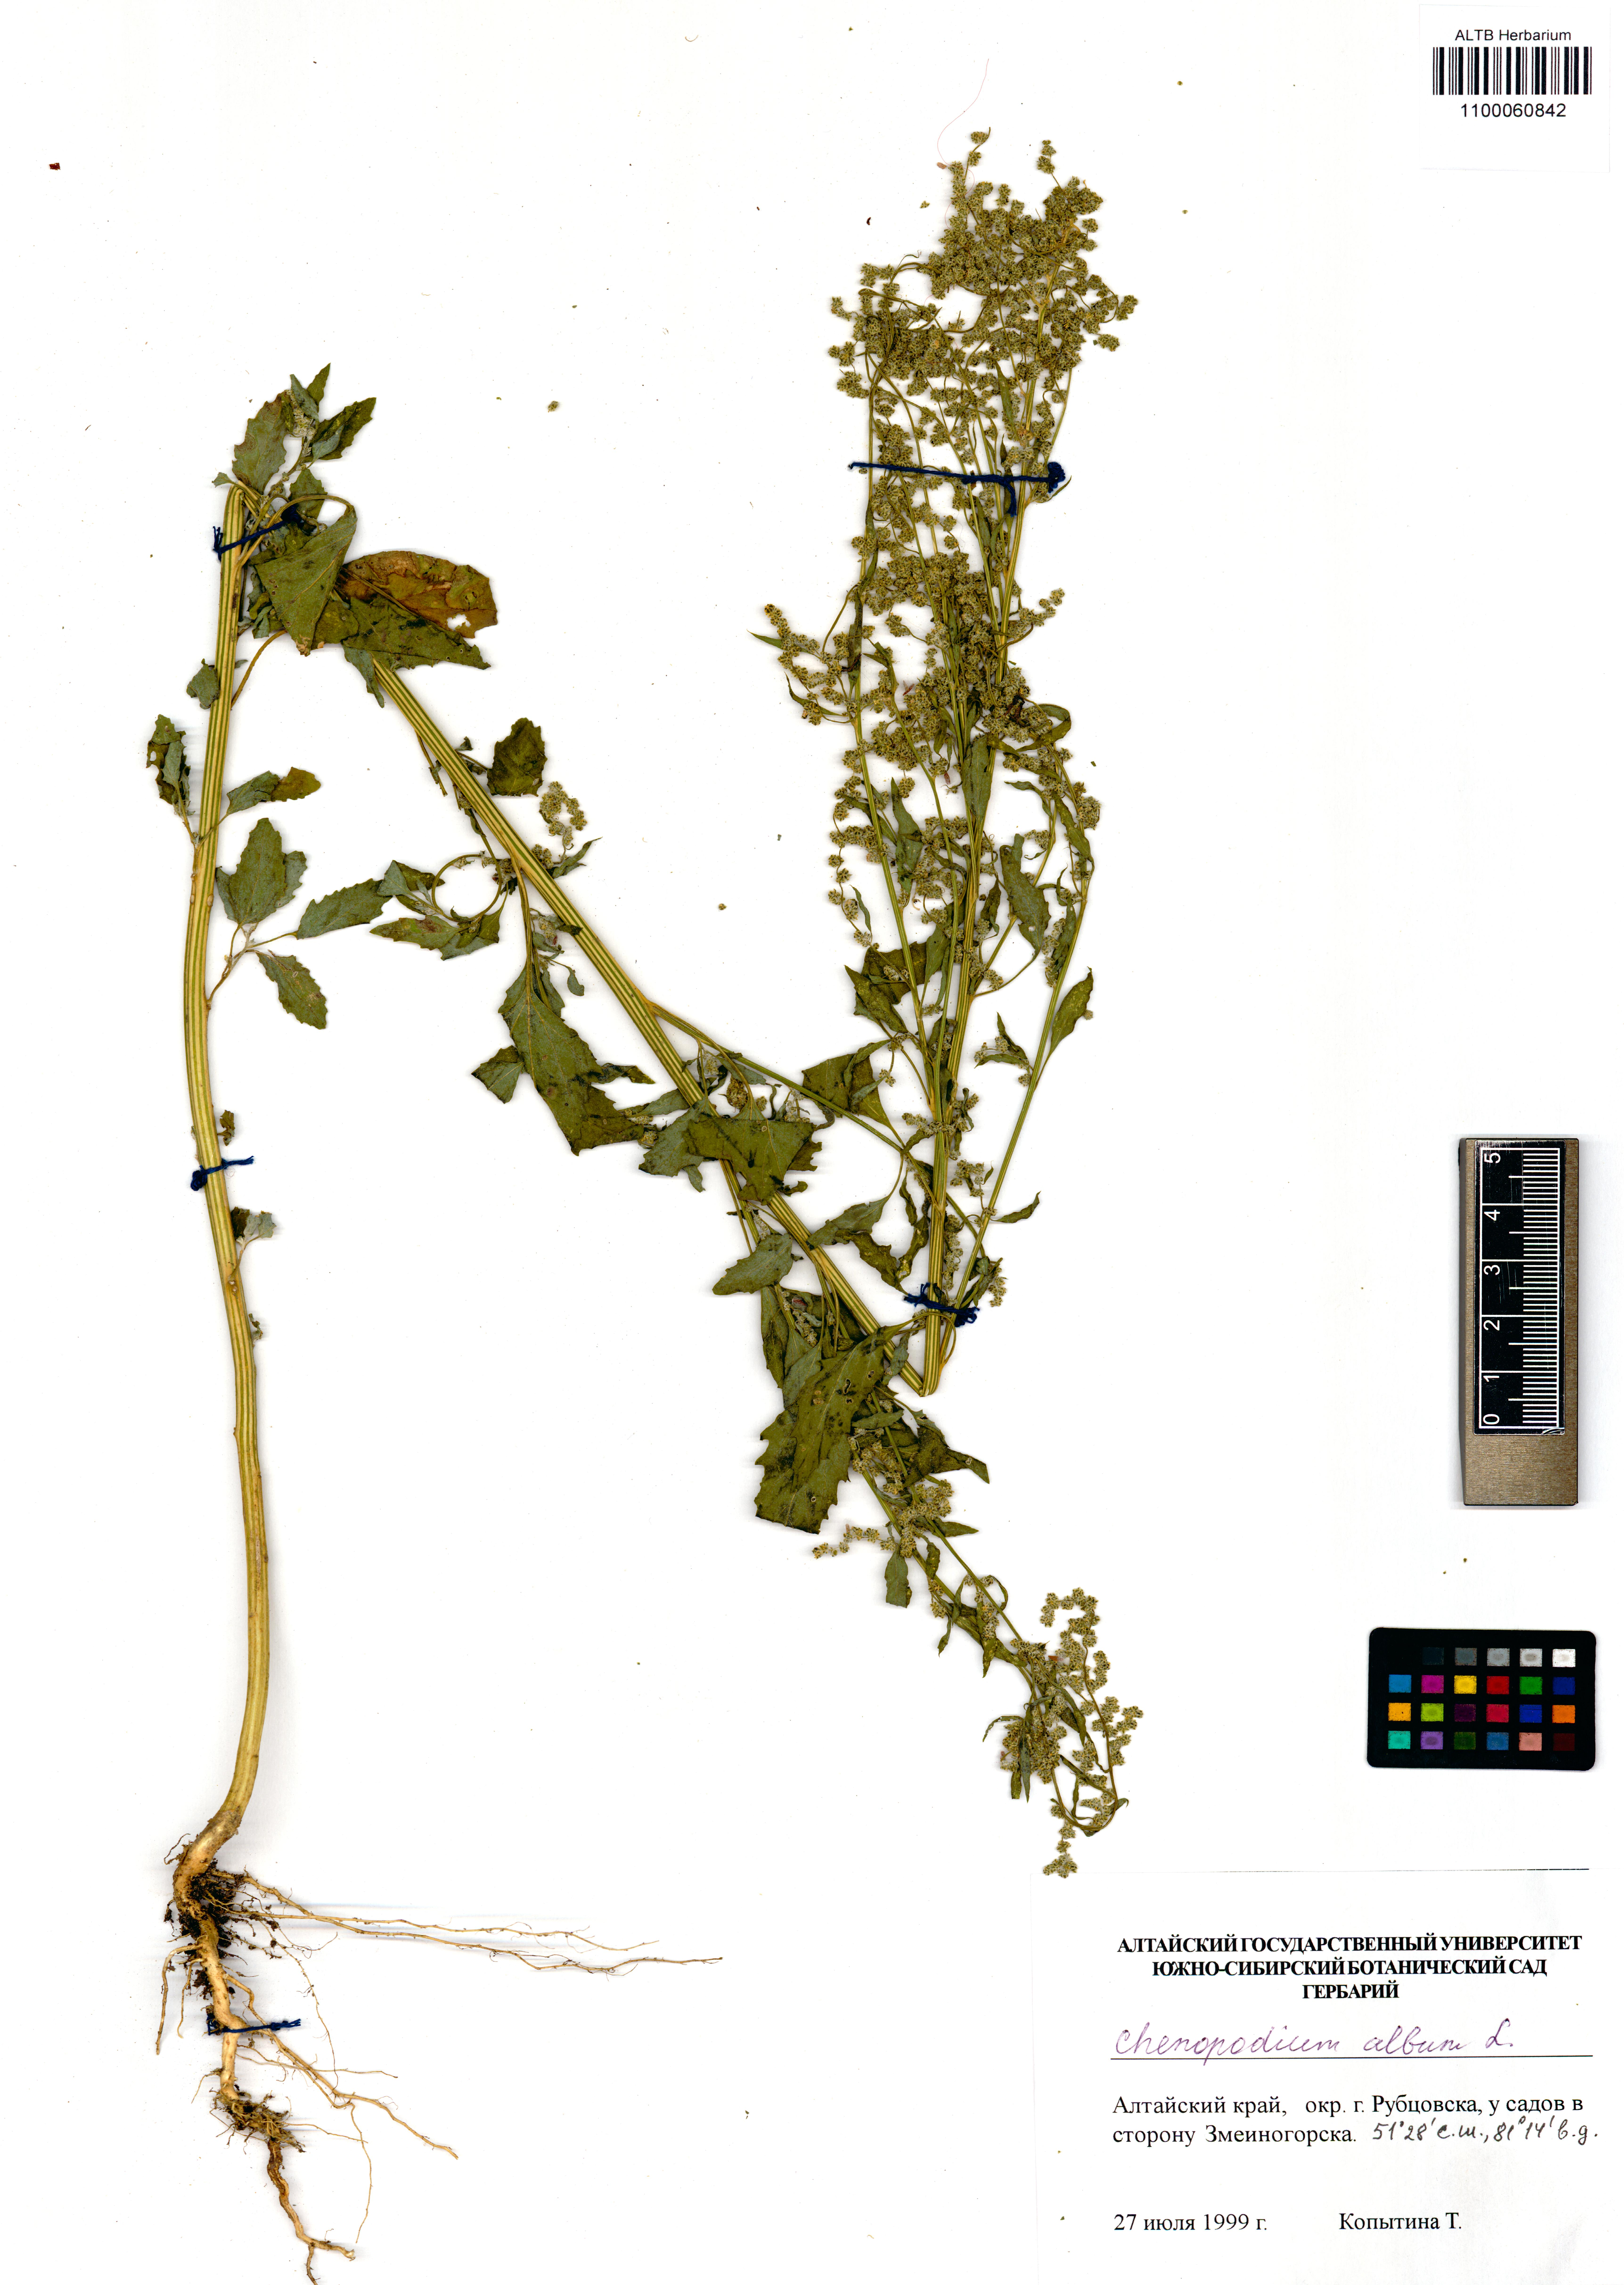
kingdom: Plantae
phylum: Tracheophyta
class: Magnoliopsida
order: Caryophyllales
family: Amaranthaceae
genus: Chenopodium
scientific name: Chenopodium album
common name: Fat-hen
